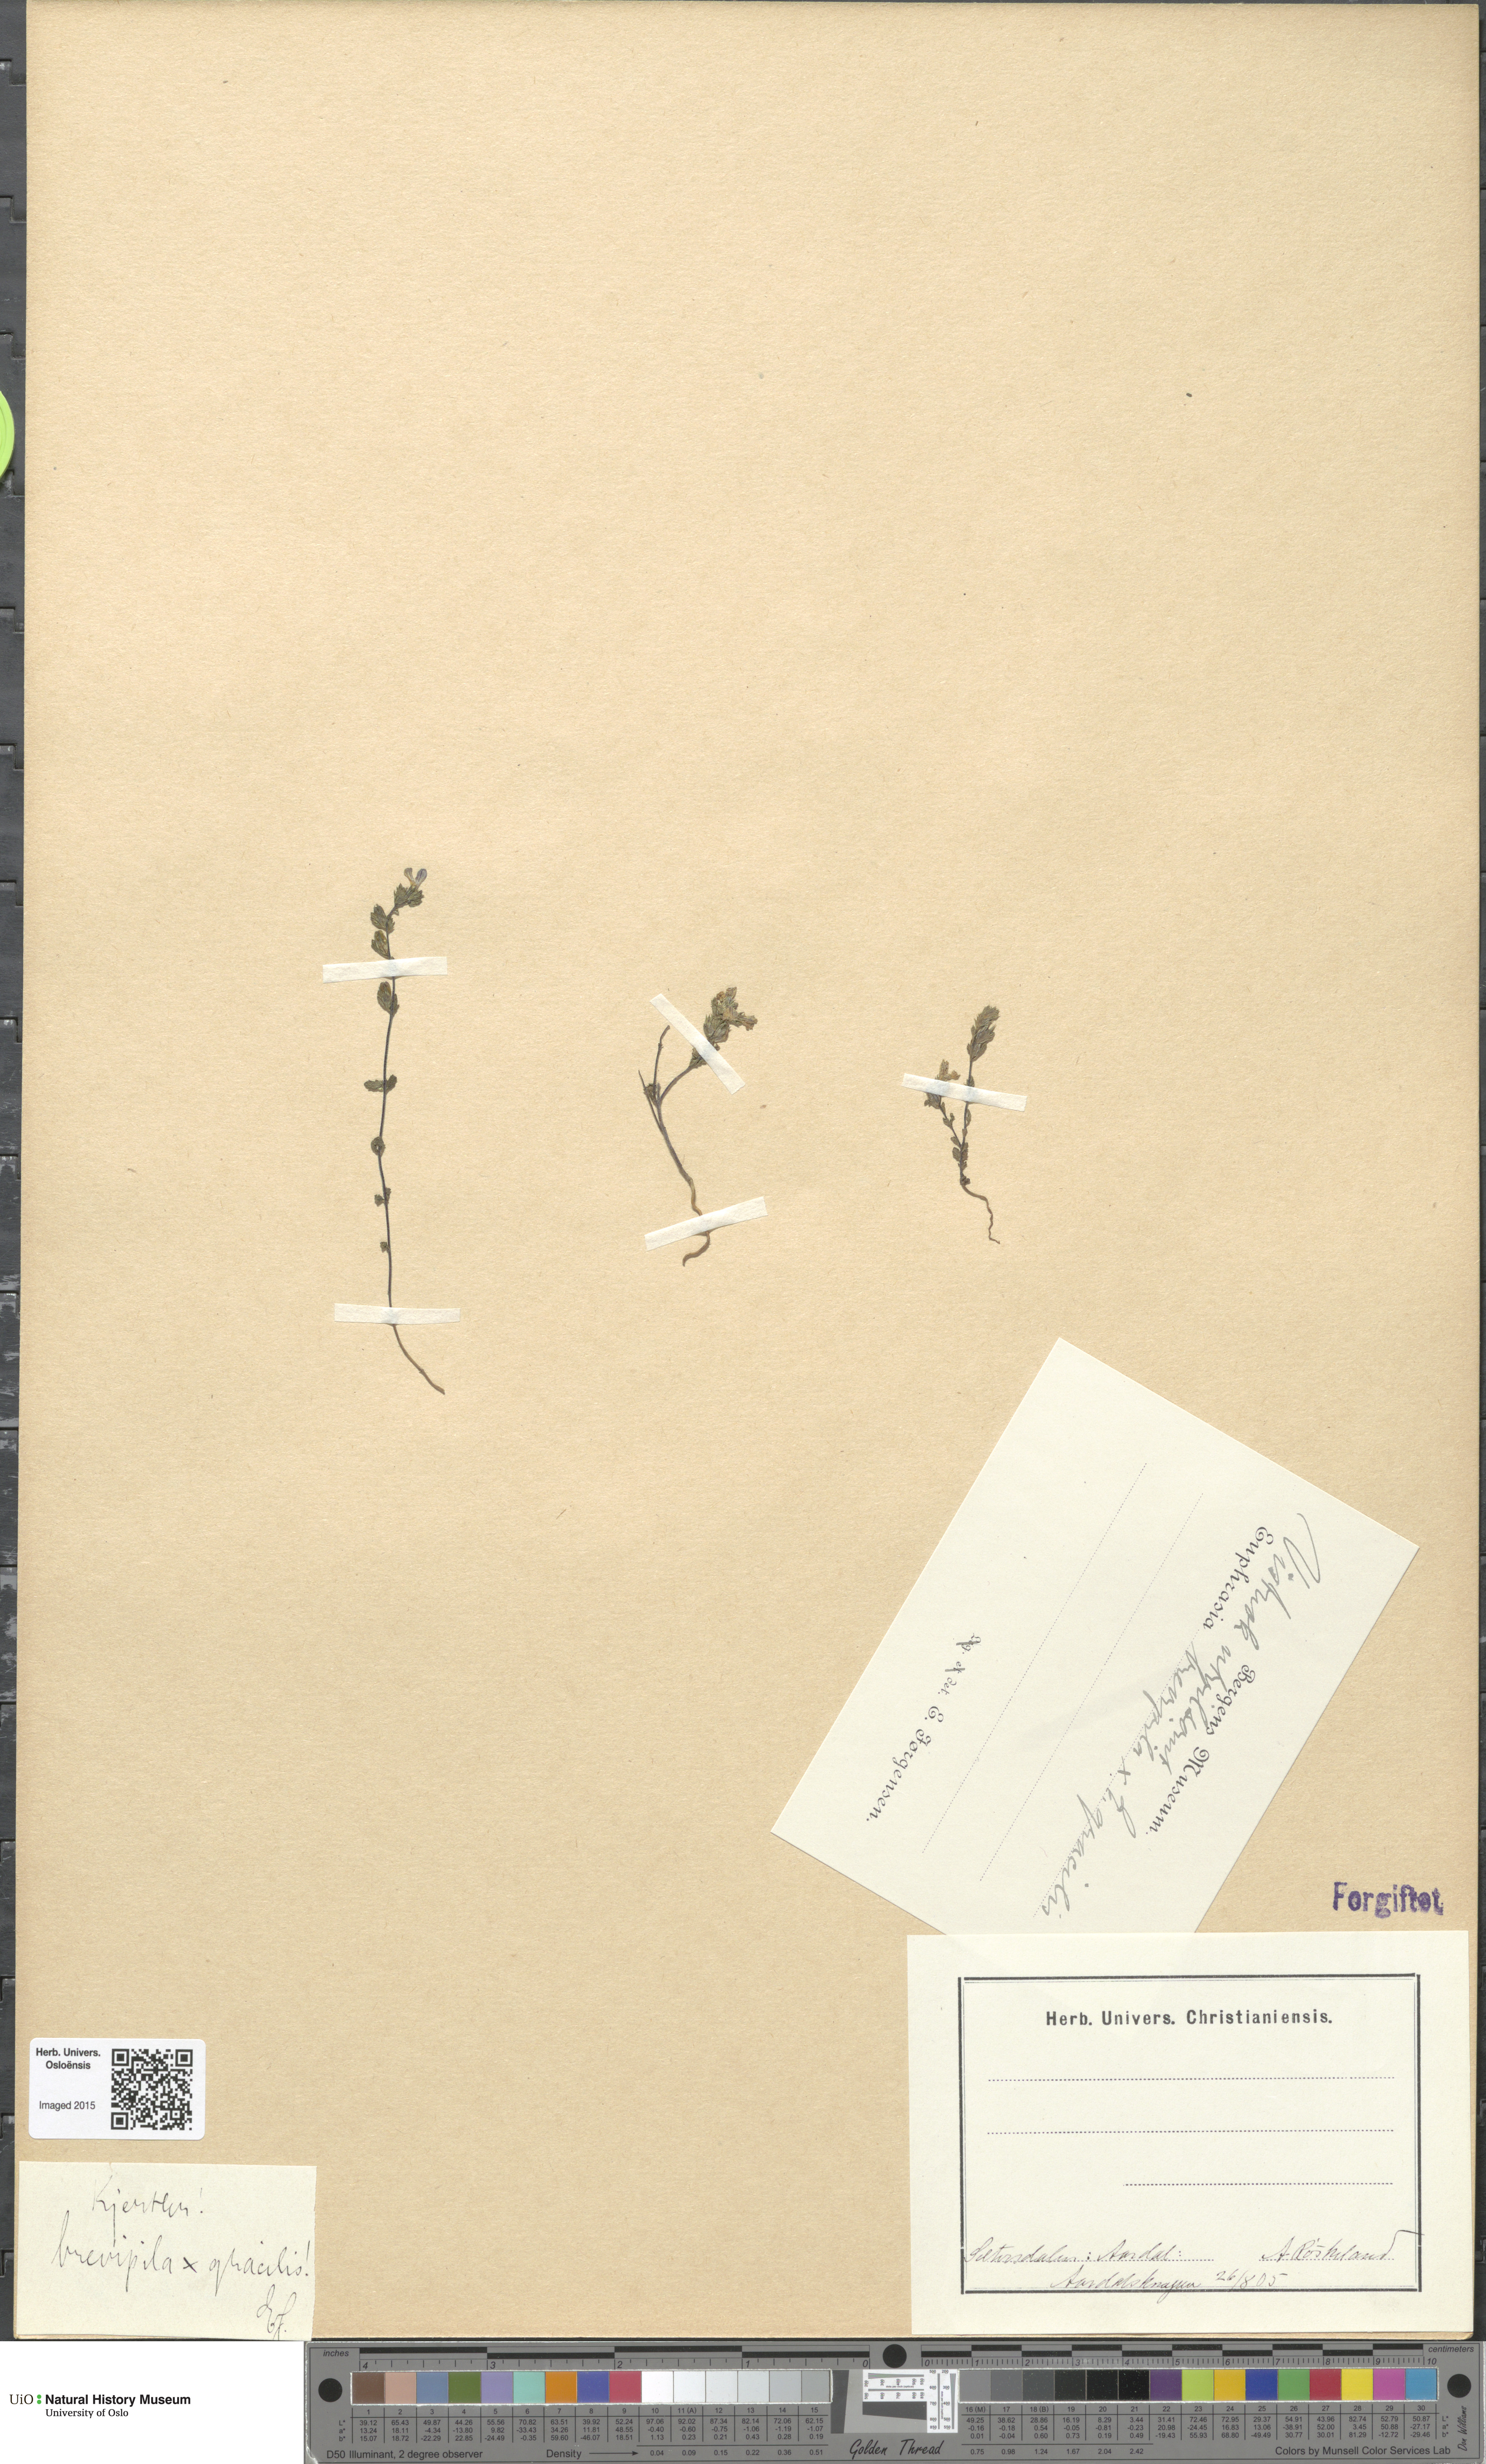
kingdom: Plantae
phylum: Tracheophyta
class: Magnoliopsida
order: Lamiales
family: Orobanchaceae
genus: Euphrasia
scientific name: Euphrasia
